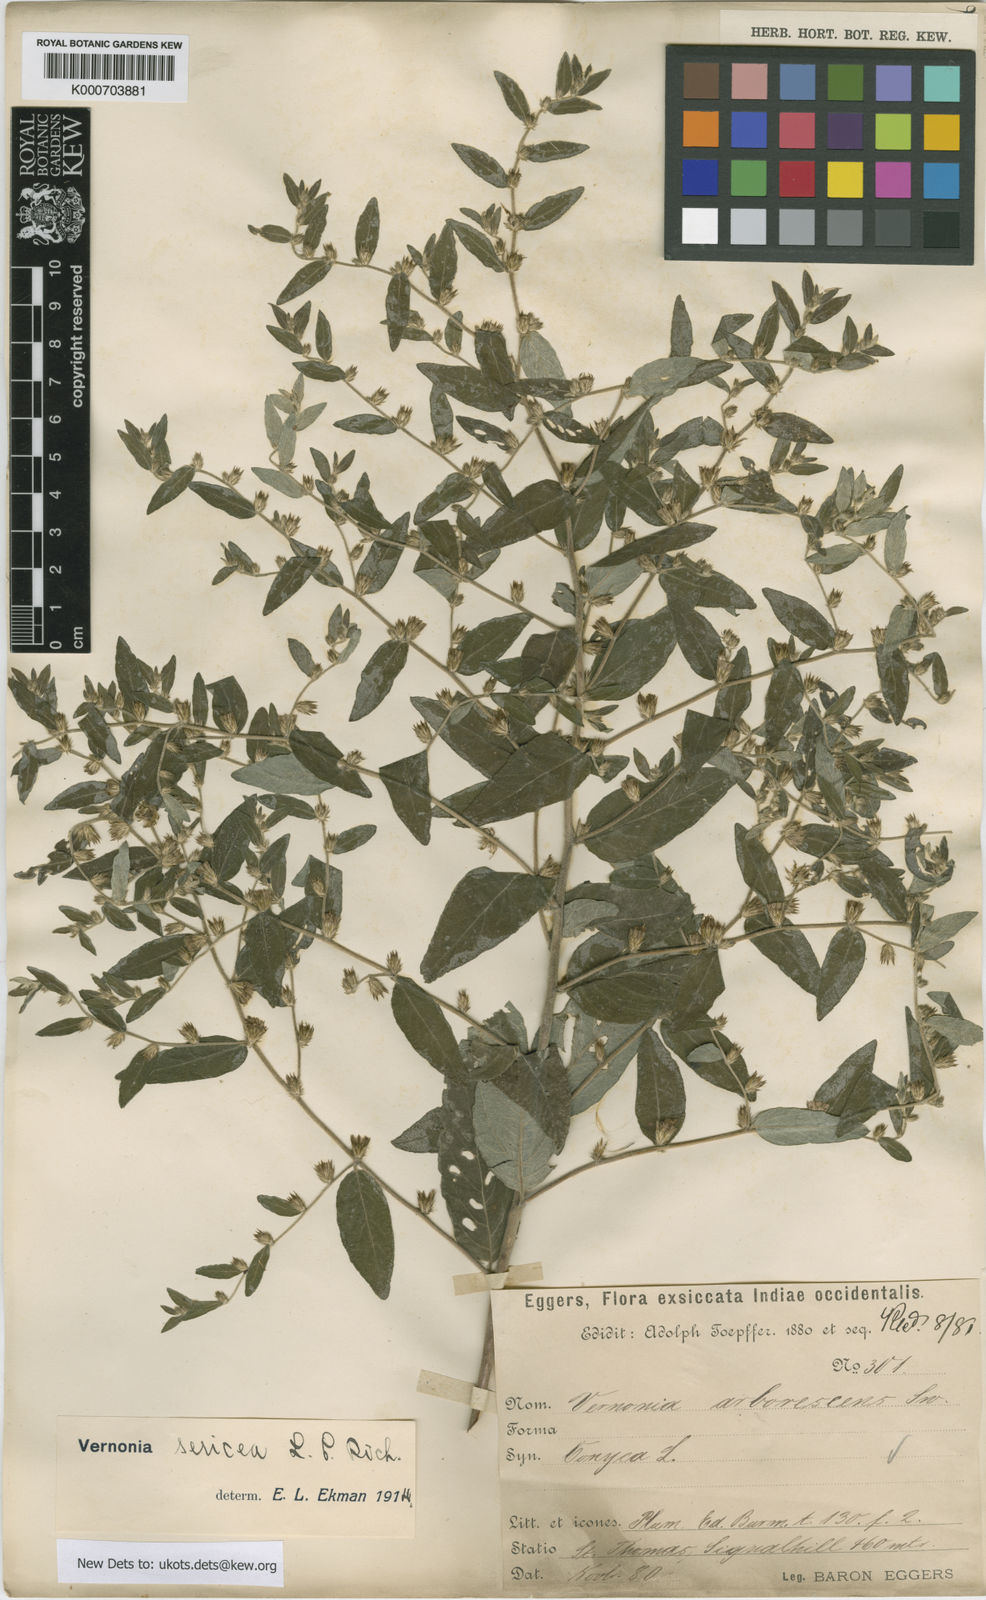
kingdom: Plantae
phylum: Tracheophyta
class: Magnoliopsida
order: Asterales
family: Asteraceae
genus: Lepidaploa
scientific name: Lepidaploa sericea
